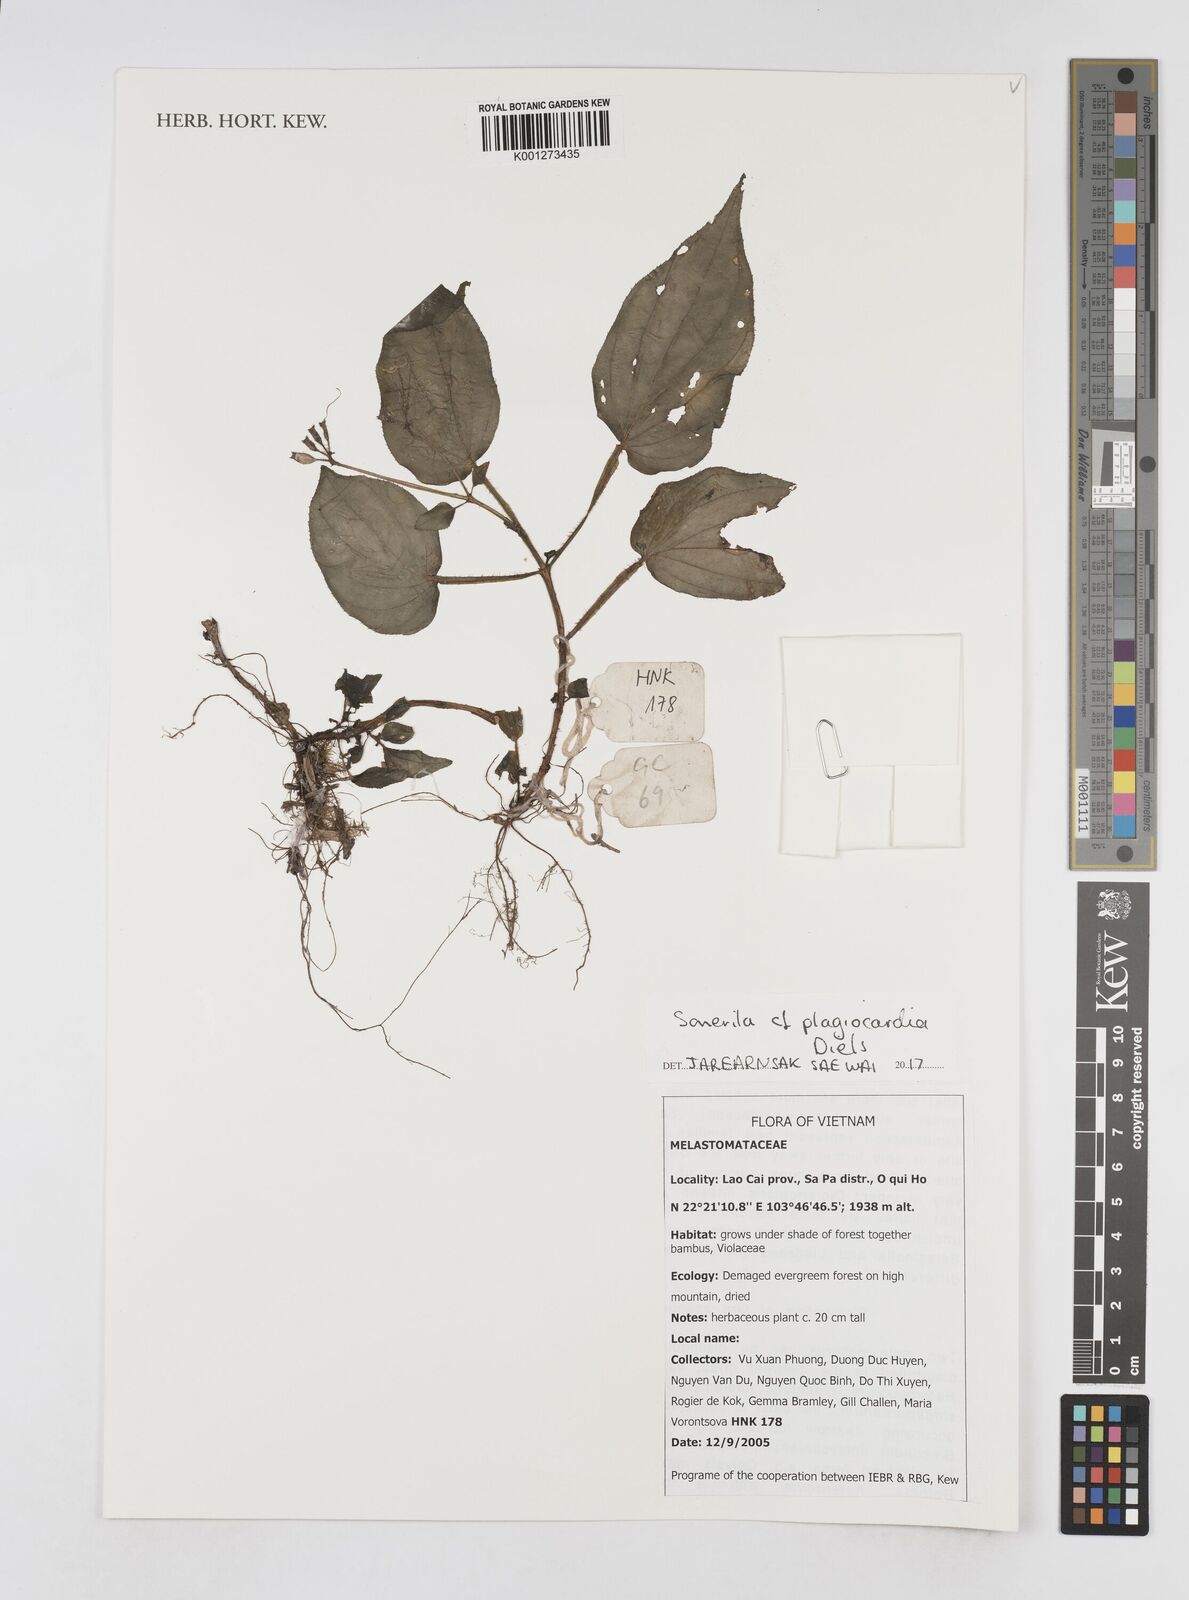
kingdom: Plantae
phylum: Tracheophyta
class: Magnoliopsida
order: Myrtales
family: Melastomataceae
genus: Sarcopyramis
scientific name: Sarcopyramis
